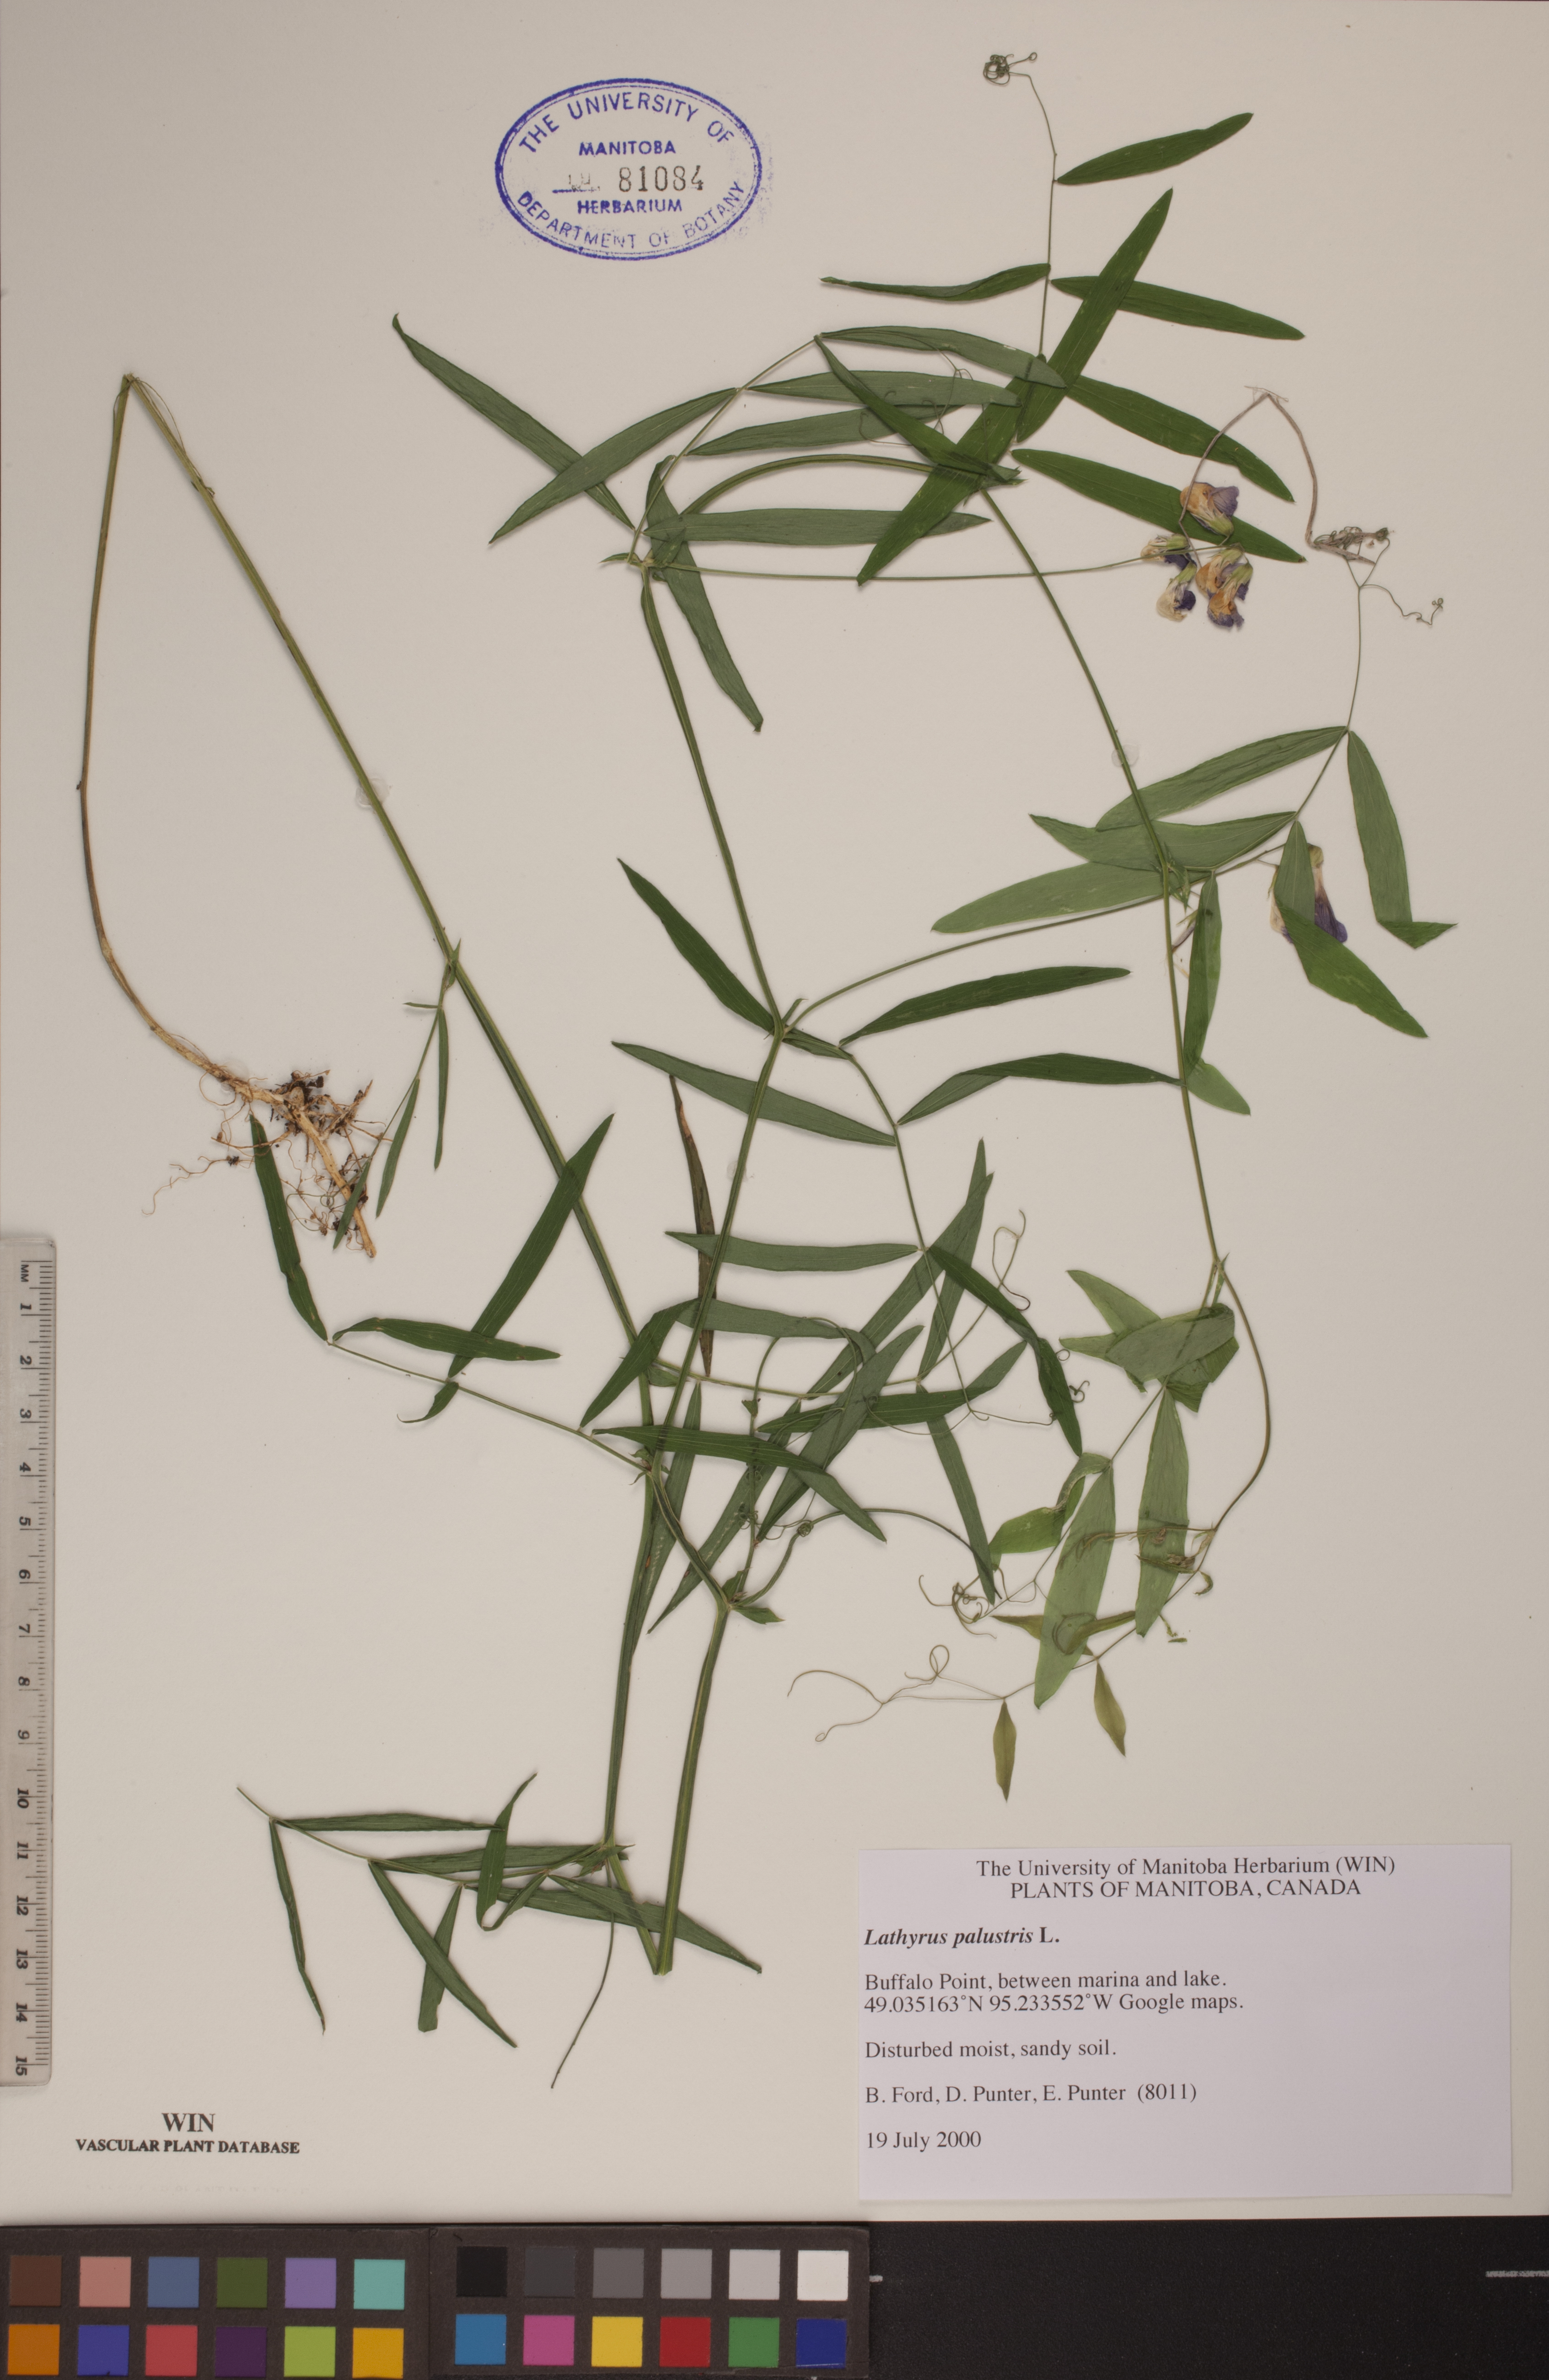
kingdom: Plantae
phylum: Tracheophyta
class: Magnoliopsida
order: Fabales
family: Fabaceae
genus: Lathyrus
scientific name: Lathyrus palustris
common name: Marsh pea
